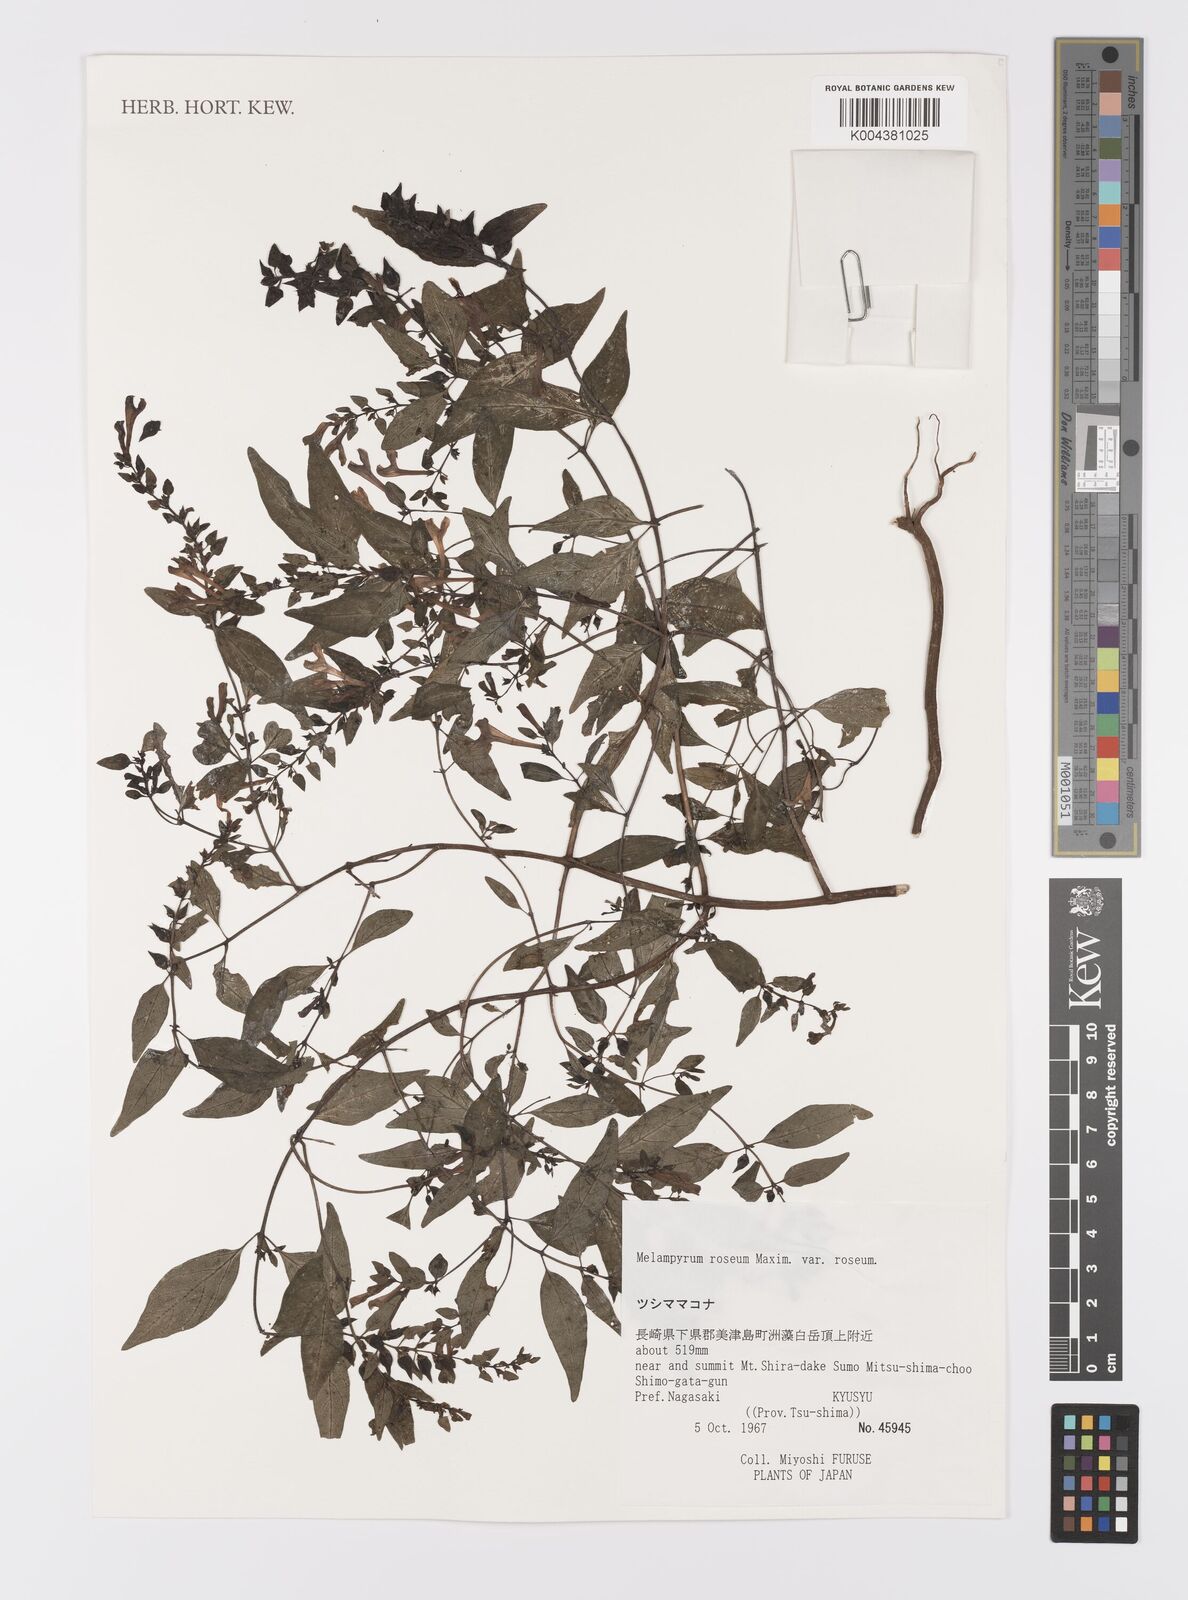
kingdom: Plantae
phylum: Tracheophyta
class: Magnoliopsida
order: Lamiales
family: Orobanchaceae
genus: Melampyrum
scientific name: Melampyrum roseum
